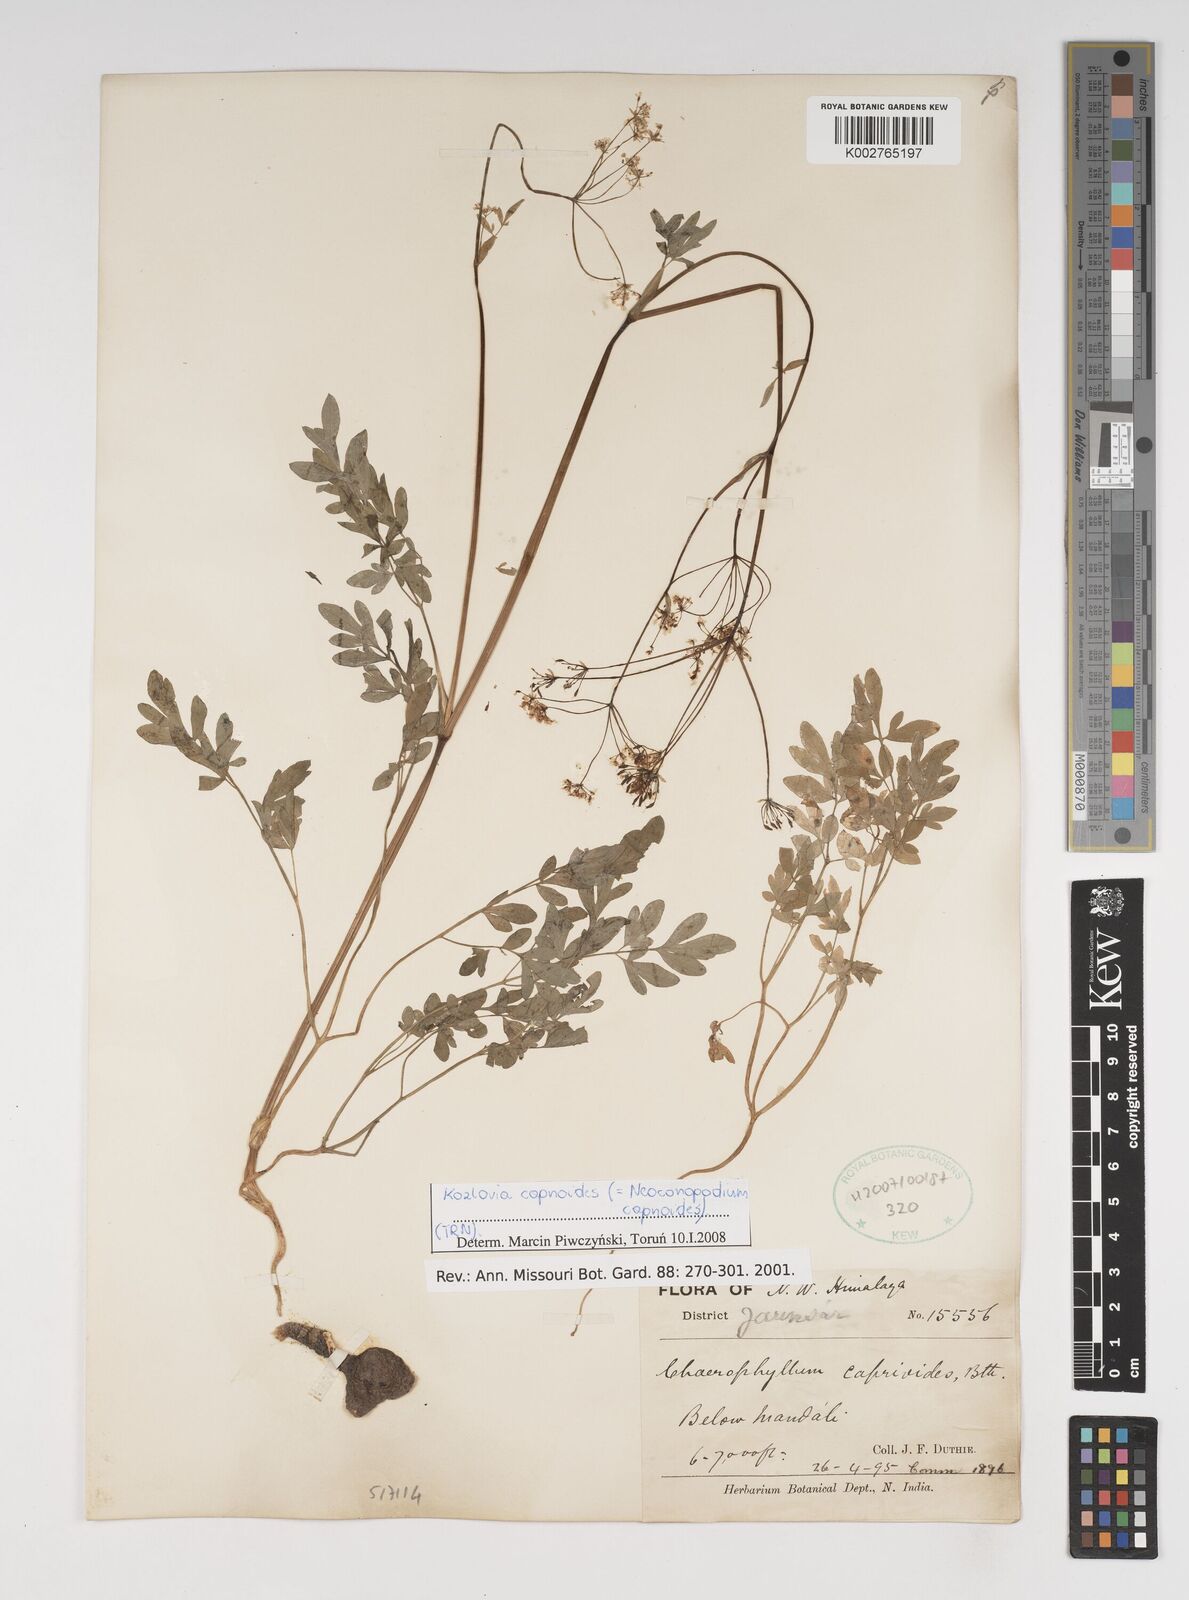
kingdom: Plantae
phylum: Tracheophyta
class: Magnoliopsida
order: Apiales
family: Apiaceae
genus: Kozlovia
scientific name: Kozlovia capnoides
